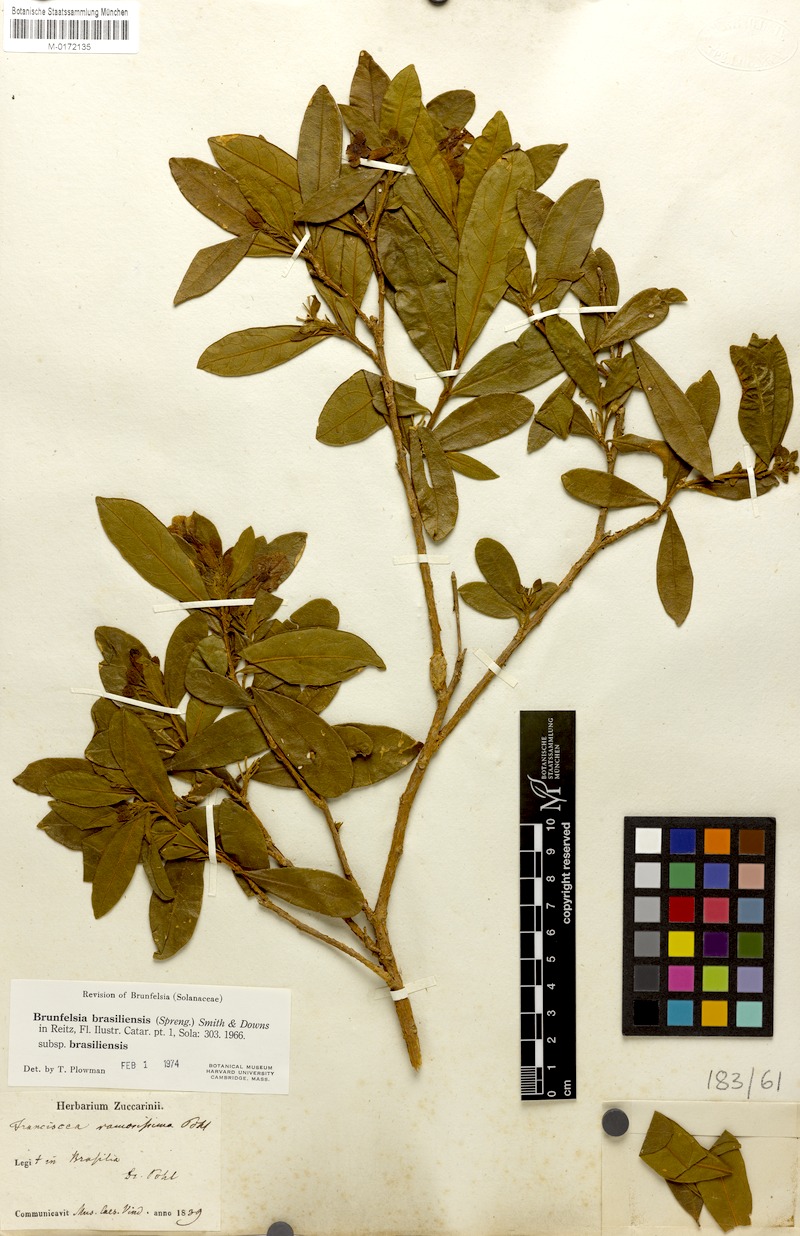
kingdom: Plantae
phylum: Tracheophyta
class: Magnoliopsida
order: Solanales
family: Solanaceae
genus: Brunfelsia
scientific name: Brunfelsia brasiliensis
